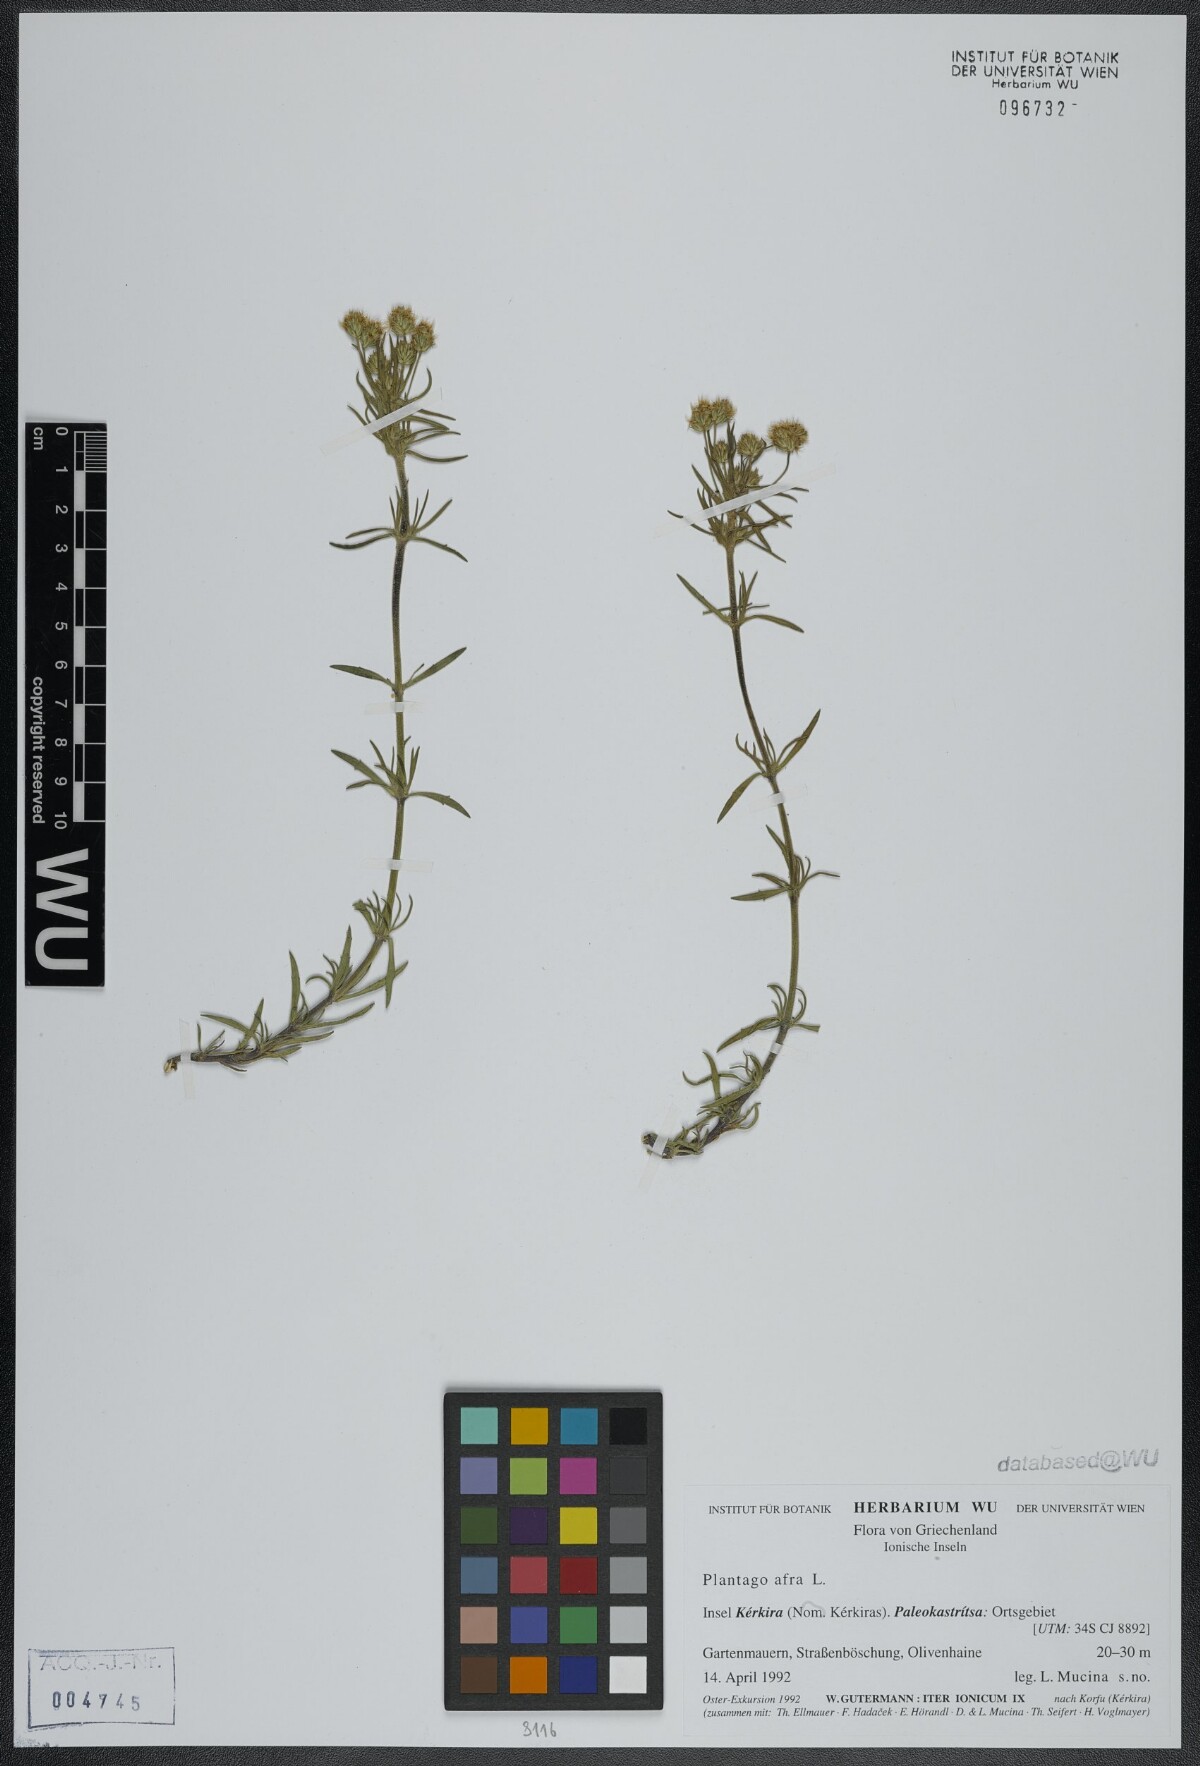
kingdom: Plantae
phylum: Tracheophyta
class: Magnoliopsida
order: Lamiales
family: Plantaginaceae
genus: Plantago
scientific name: Plantago afra
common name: Glandular plantain
